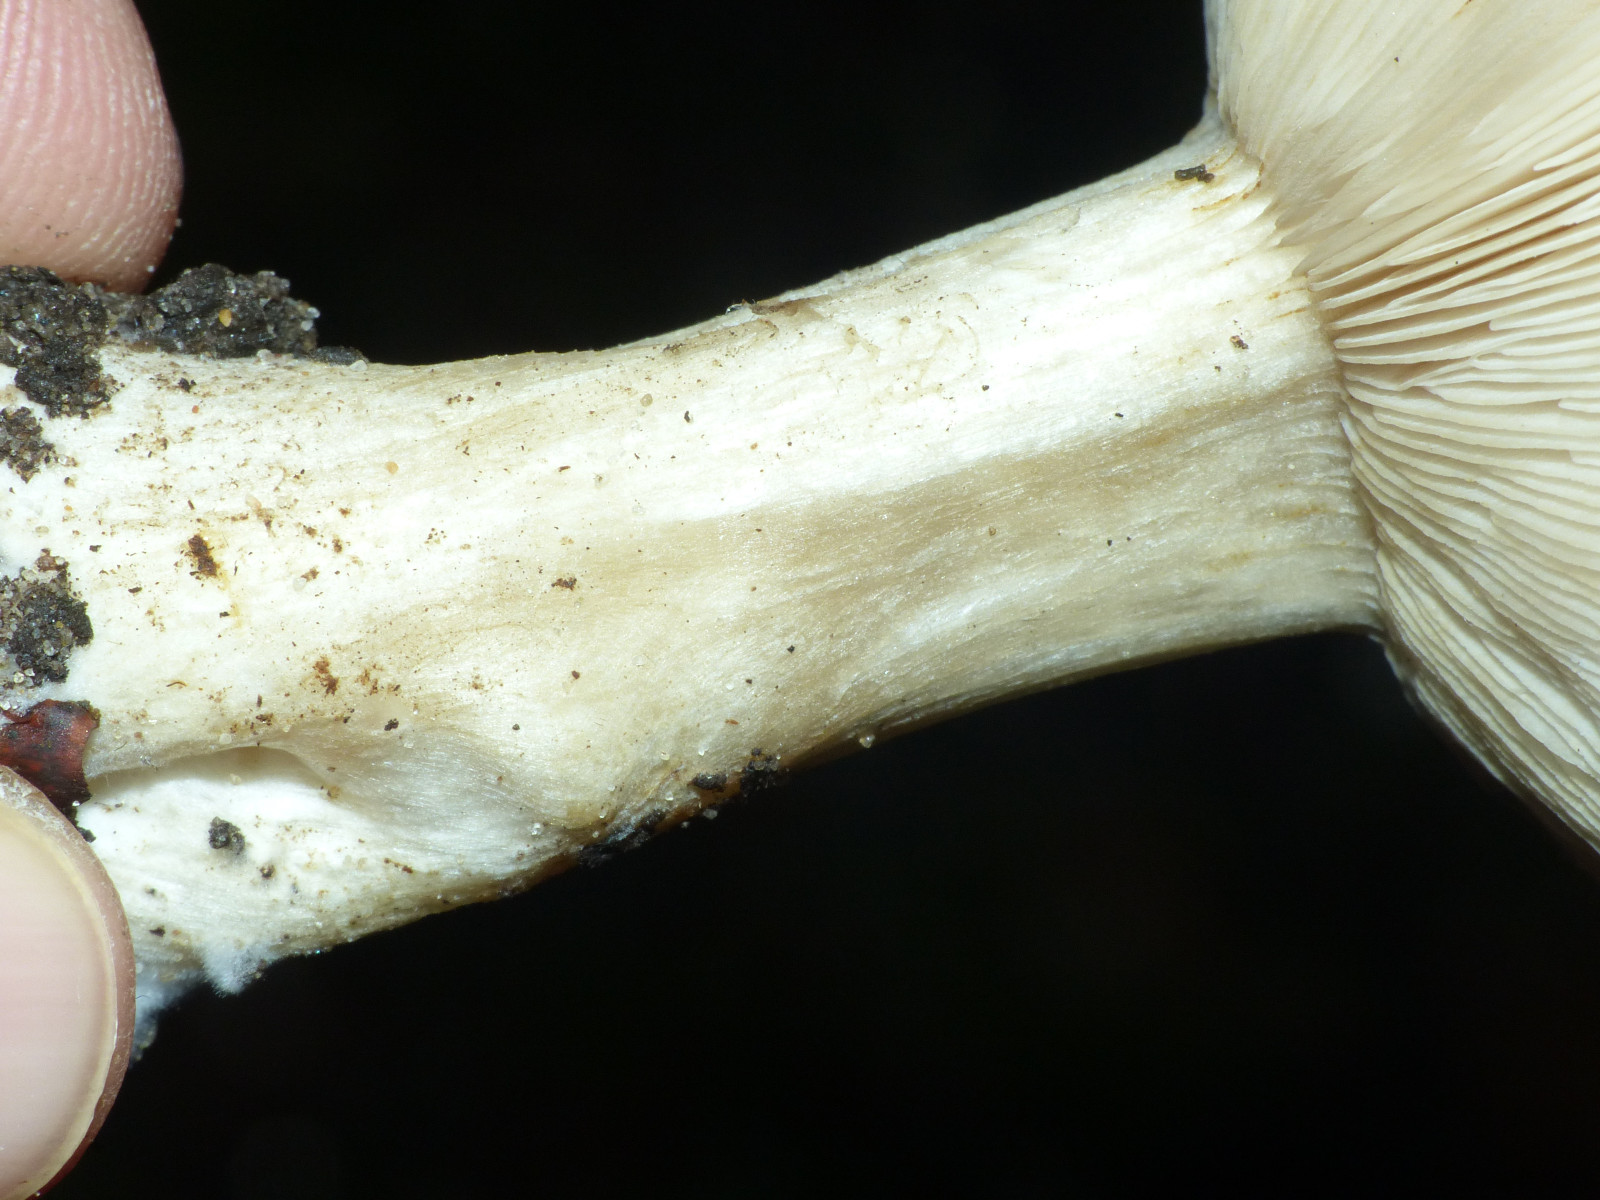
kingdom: Fungi
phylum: Basidiomycota
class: Agaricomycetes
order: Agaricales
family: Tricholomataceae
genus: Melanoleuca
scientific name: Melanoleuca
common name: munkehat
